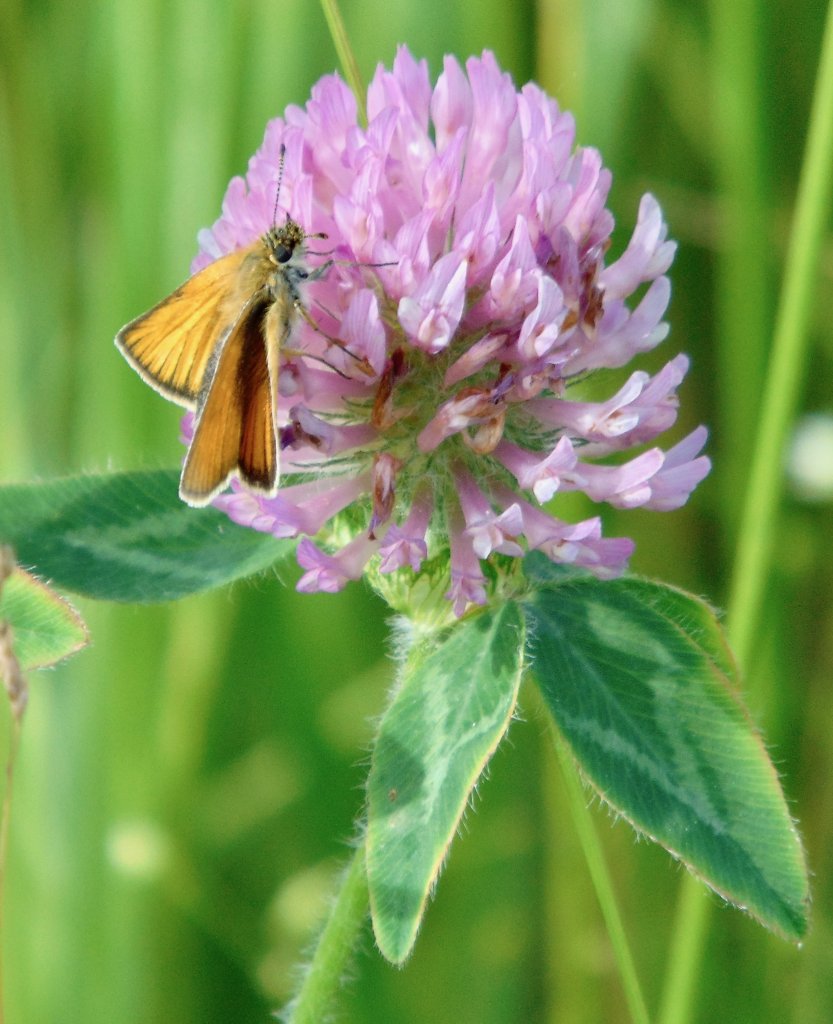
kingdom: Animalia
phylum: Arthropoda
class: Insecta
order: Lepidoptera
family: Hesperiidae
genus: Thymelicus
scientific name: Thymelicus lineola
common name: European Skipper
